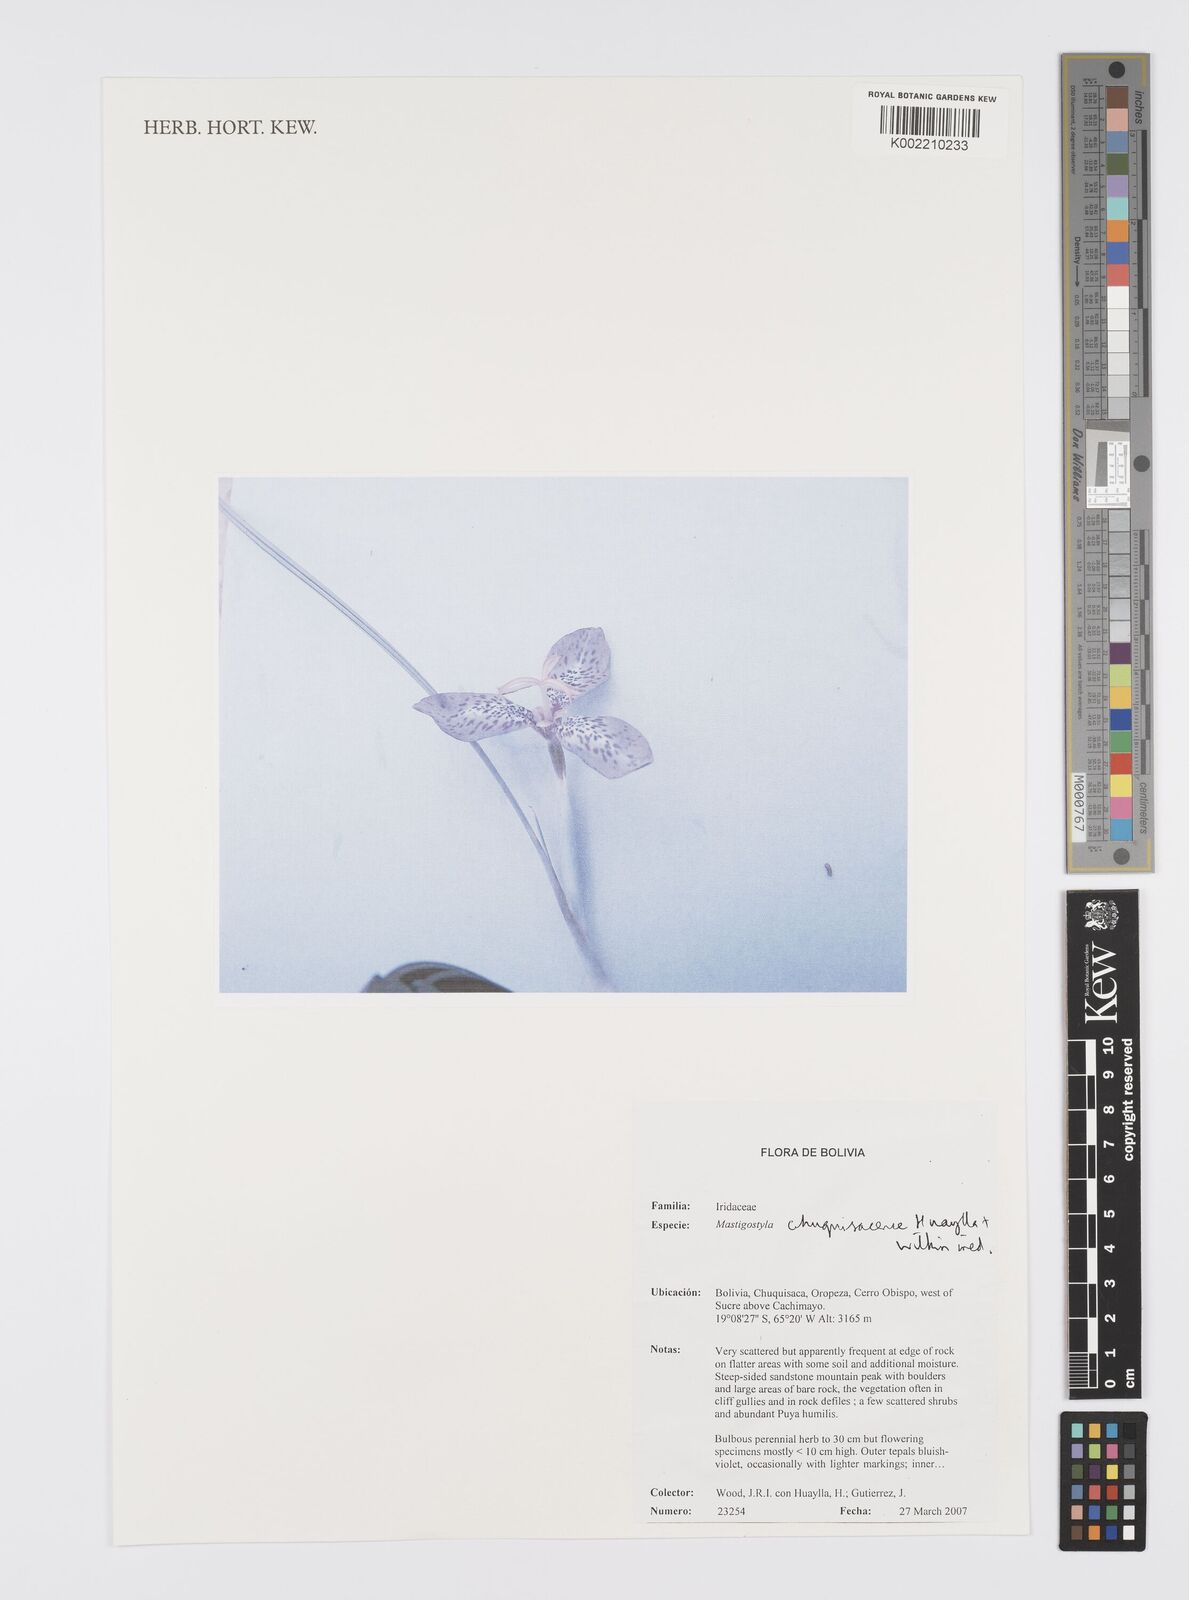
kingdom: Plantae
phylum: Tracheophyta
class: Liliopsida
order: Asparagales
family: Iridaceae
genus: Mastigostyla
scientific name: Mastigostyla chuquisacensis
